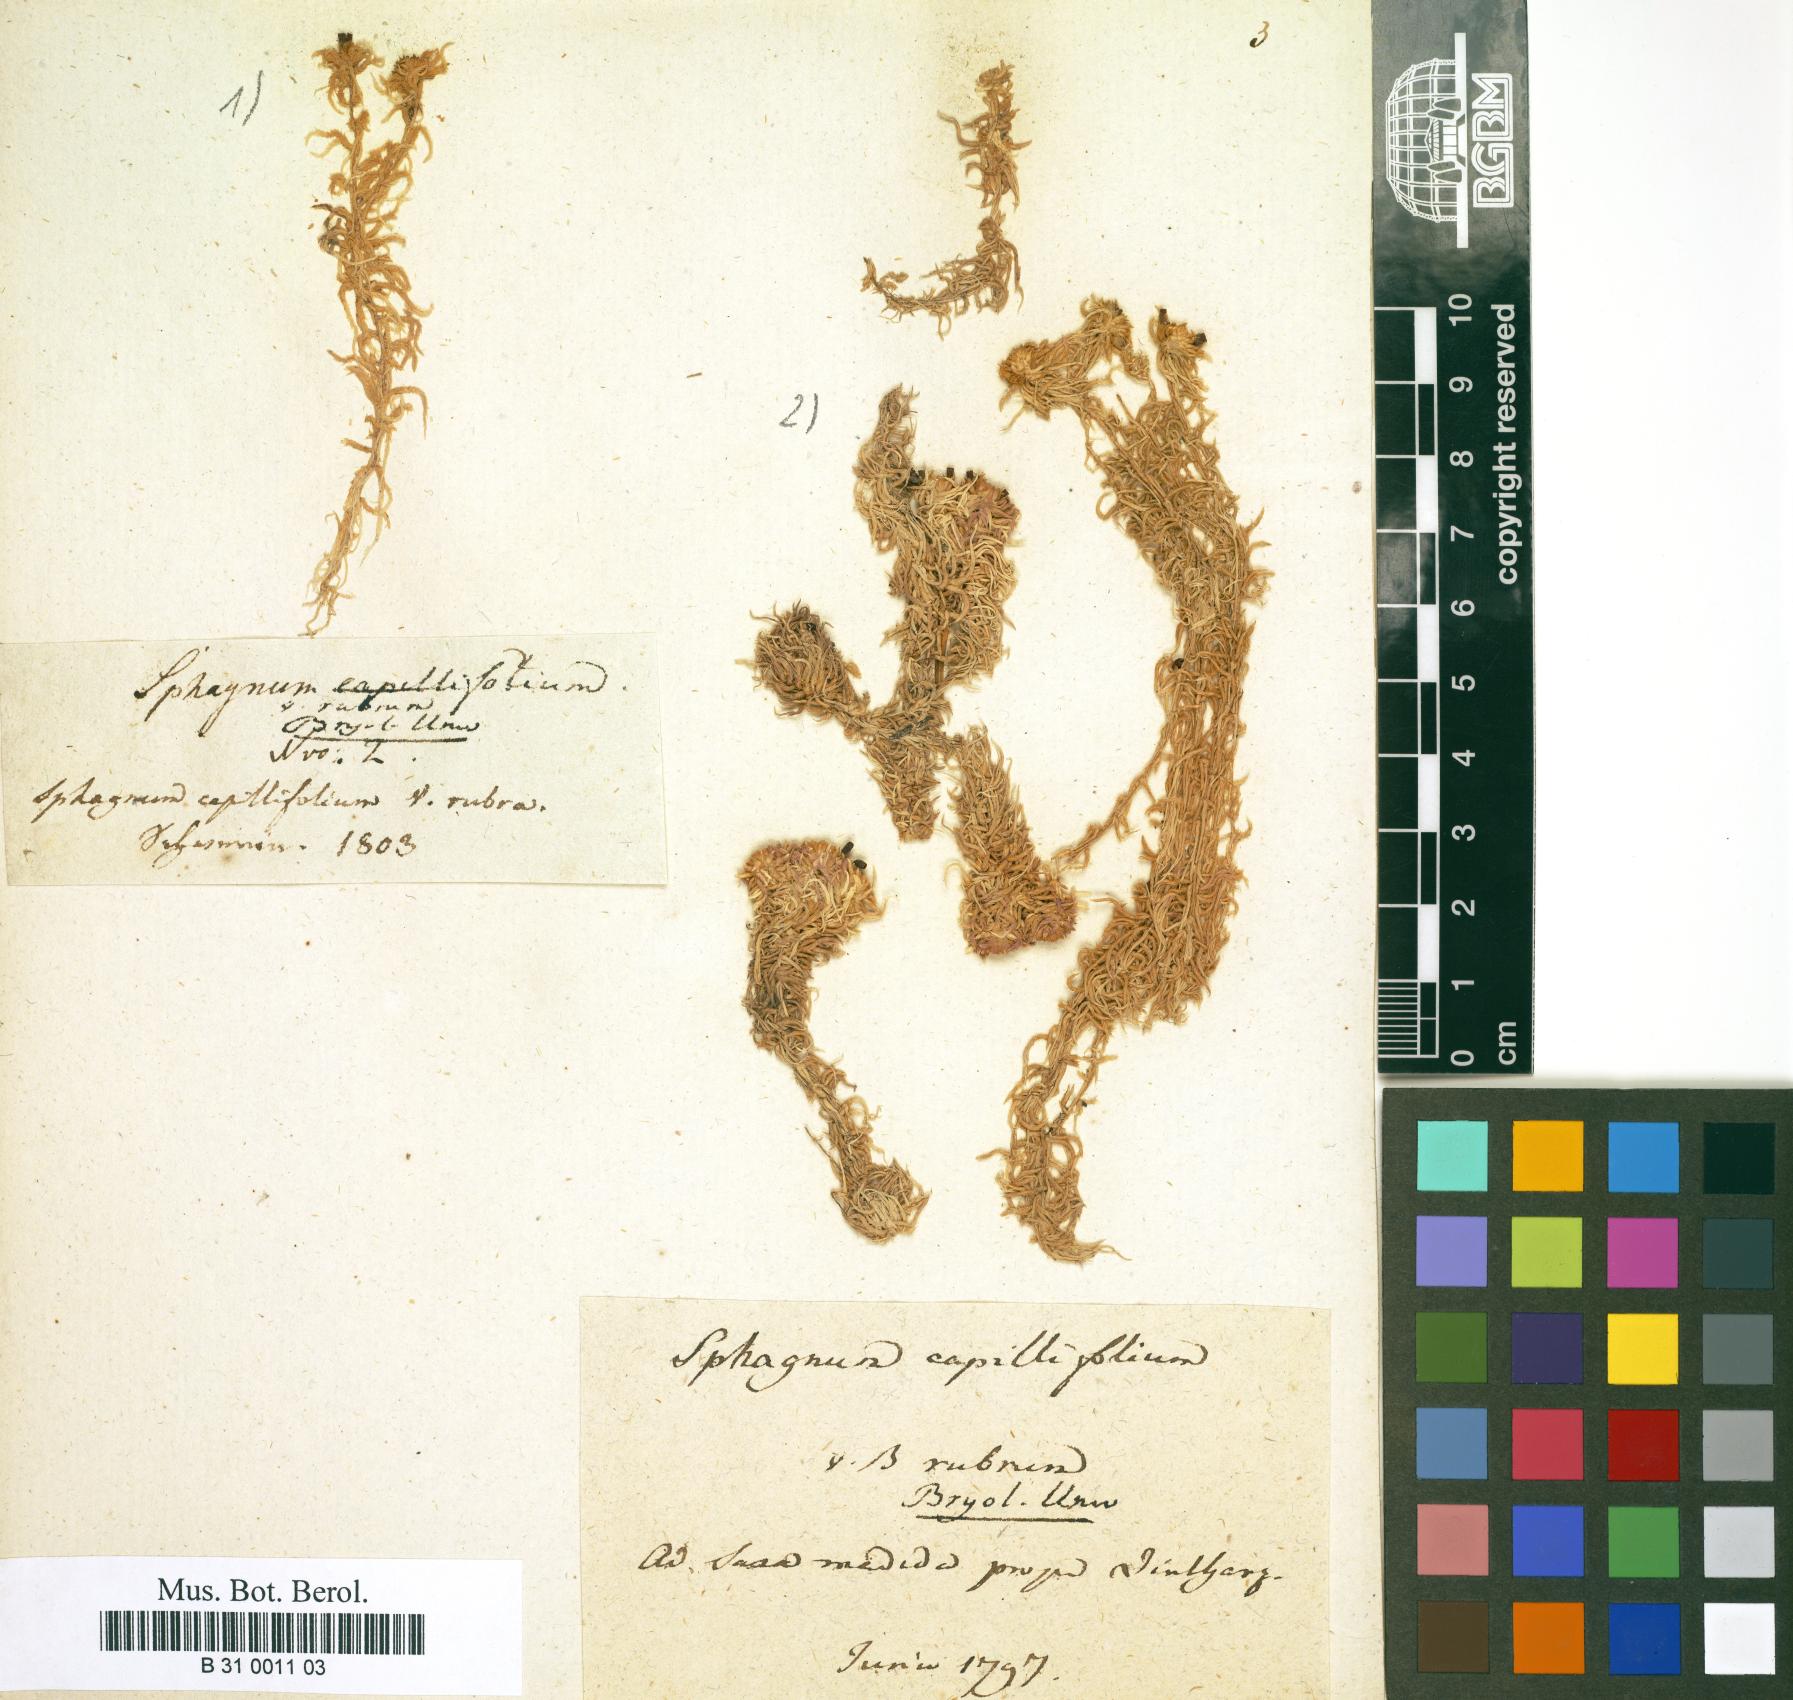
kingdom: Plantae
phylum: Bryophyta
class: Sphagnopsida
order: Sphagnales
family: Sphagnaceae
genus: Sphagnum
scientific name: Sphagnum capillifolium
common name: Small red peat moss
